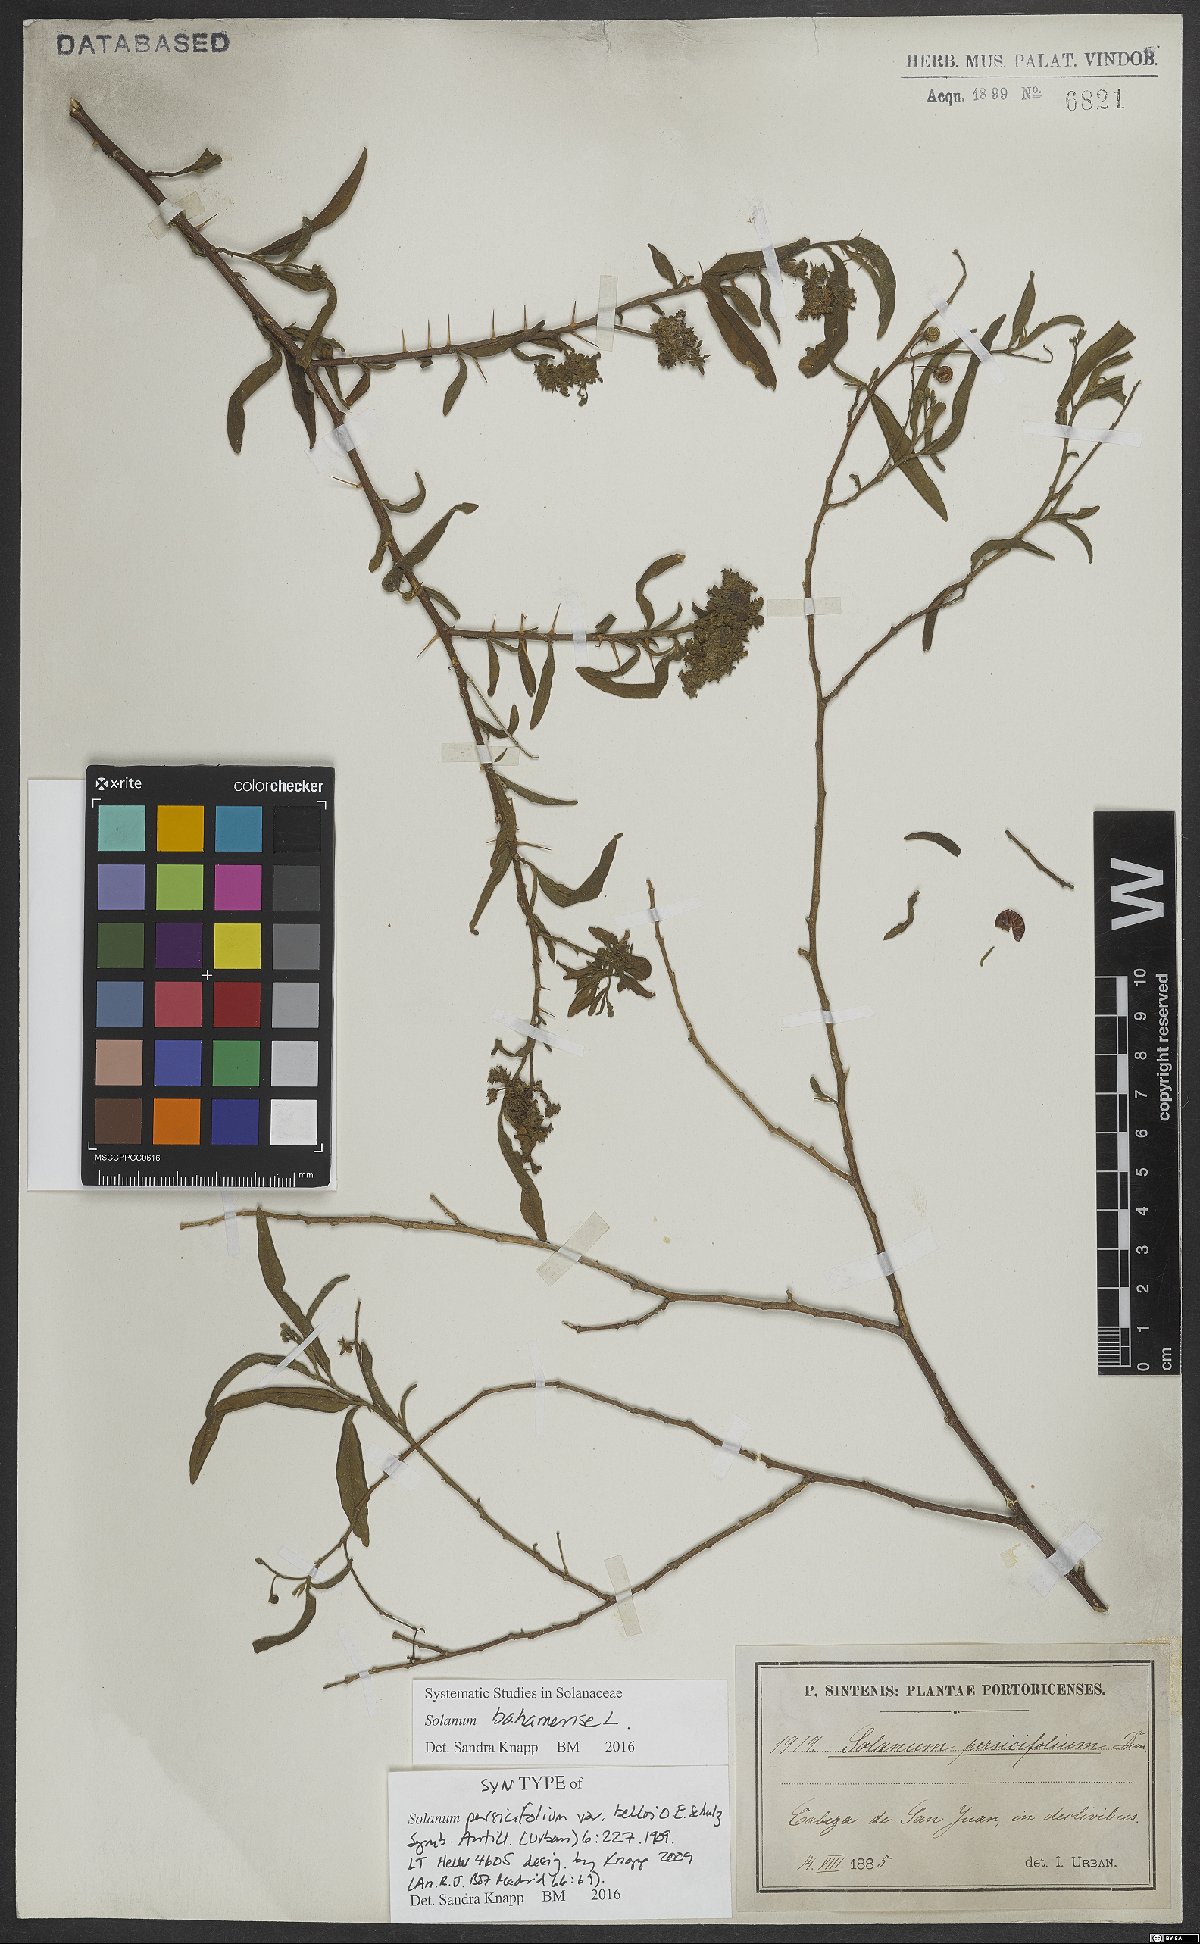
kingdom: Plantae
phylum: Tracheophyta
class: Magnoliopsida
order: Solanales
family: Solanaceae
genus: Solanum
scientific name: Solanum bahamense
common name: Canker-berry
